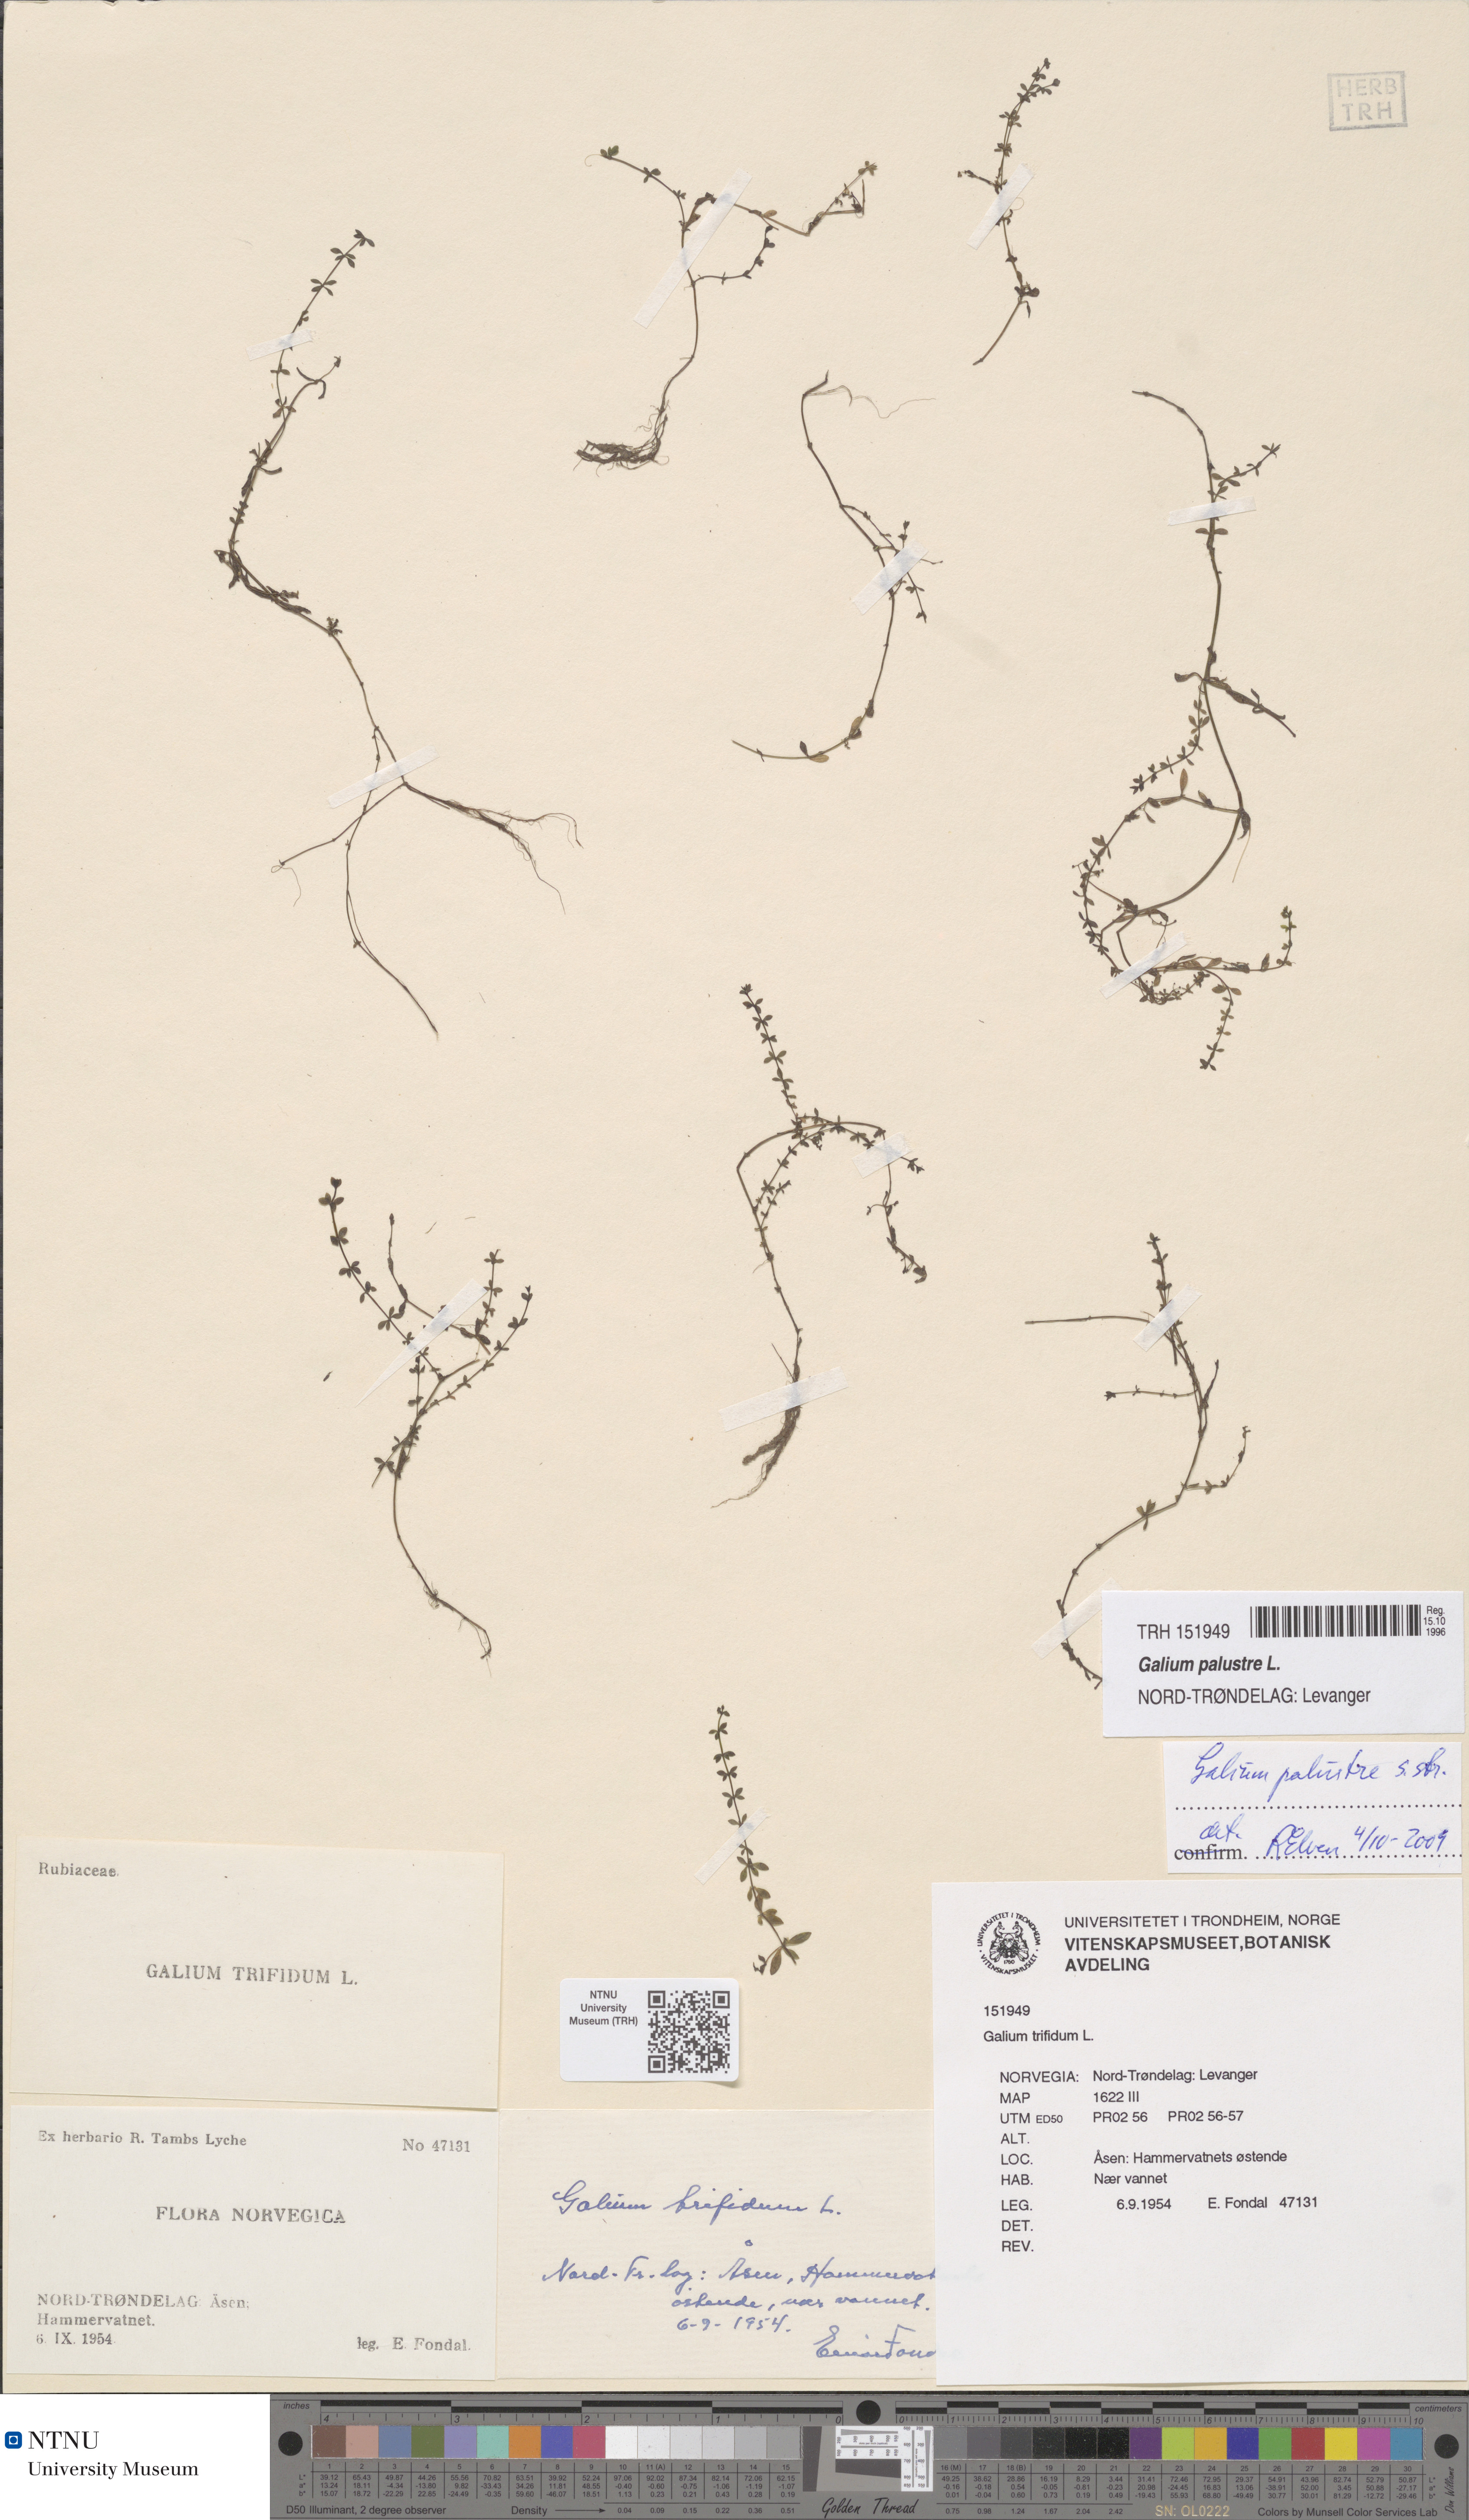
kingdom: Plantae
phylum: Tracheophyta
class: Magnoliopsida
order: Gentianales
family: Rubiaceae
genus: Galium
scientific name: Galium palustre
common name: Common marsh-bedstraw
